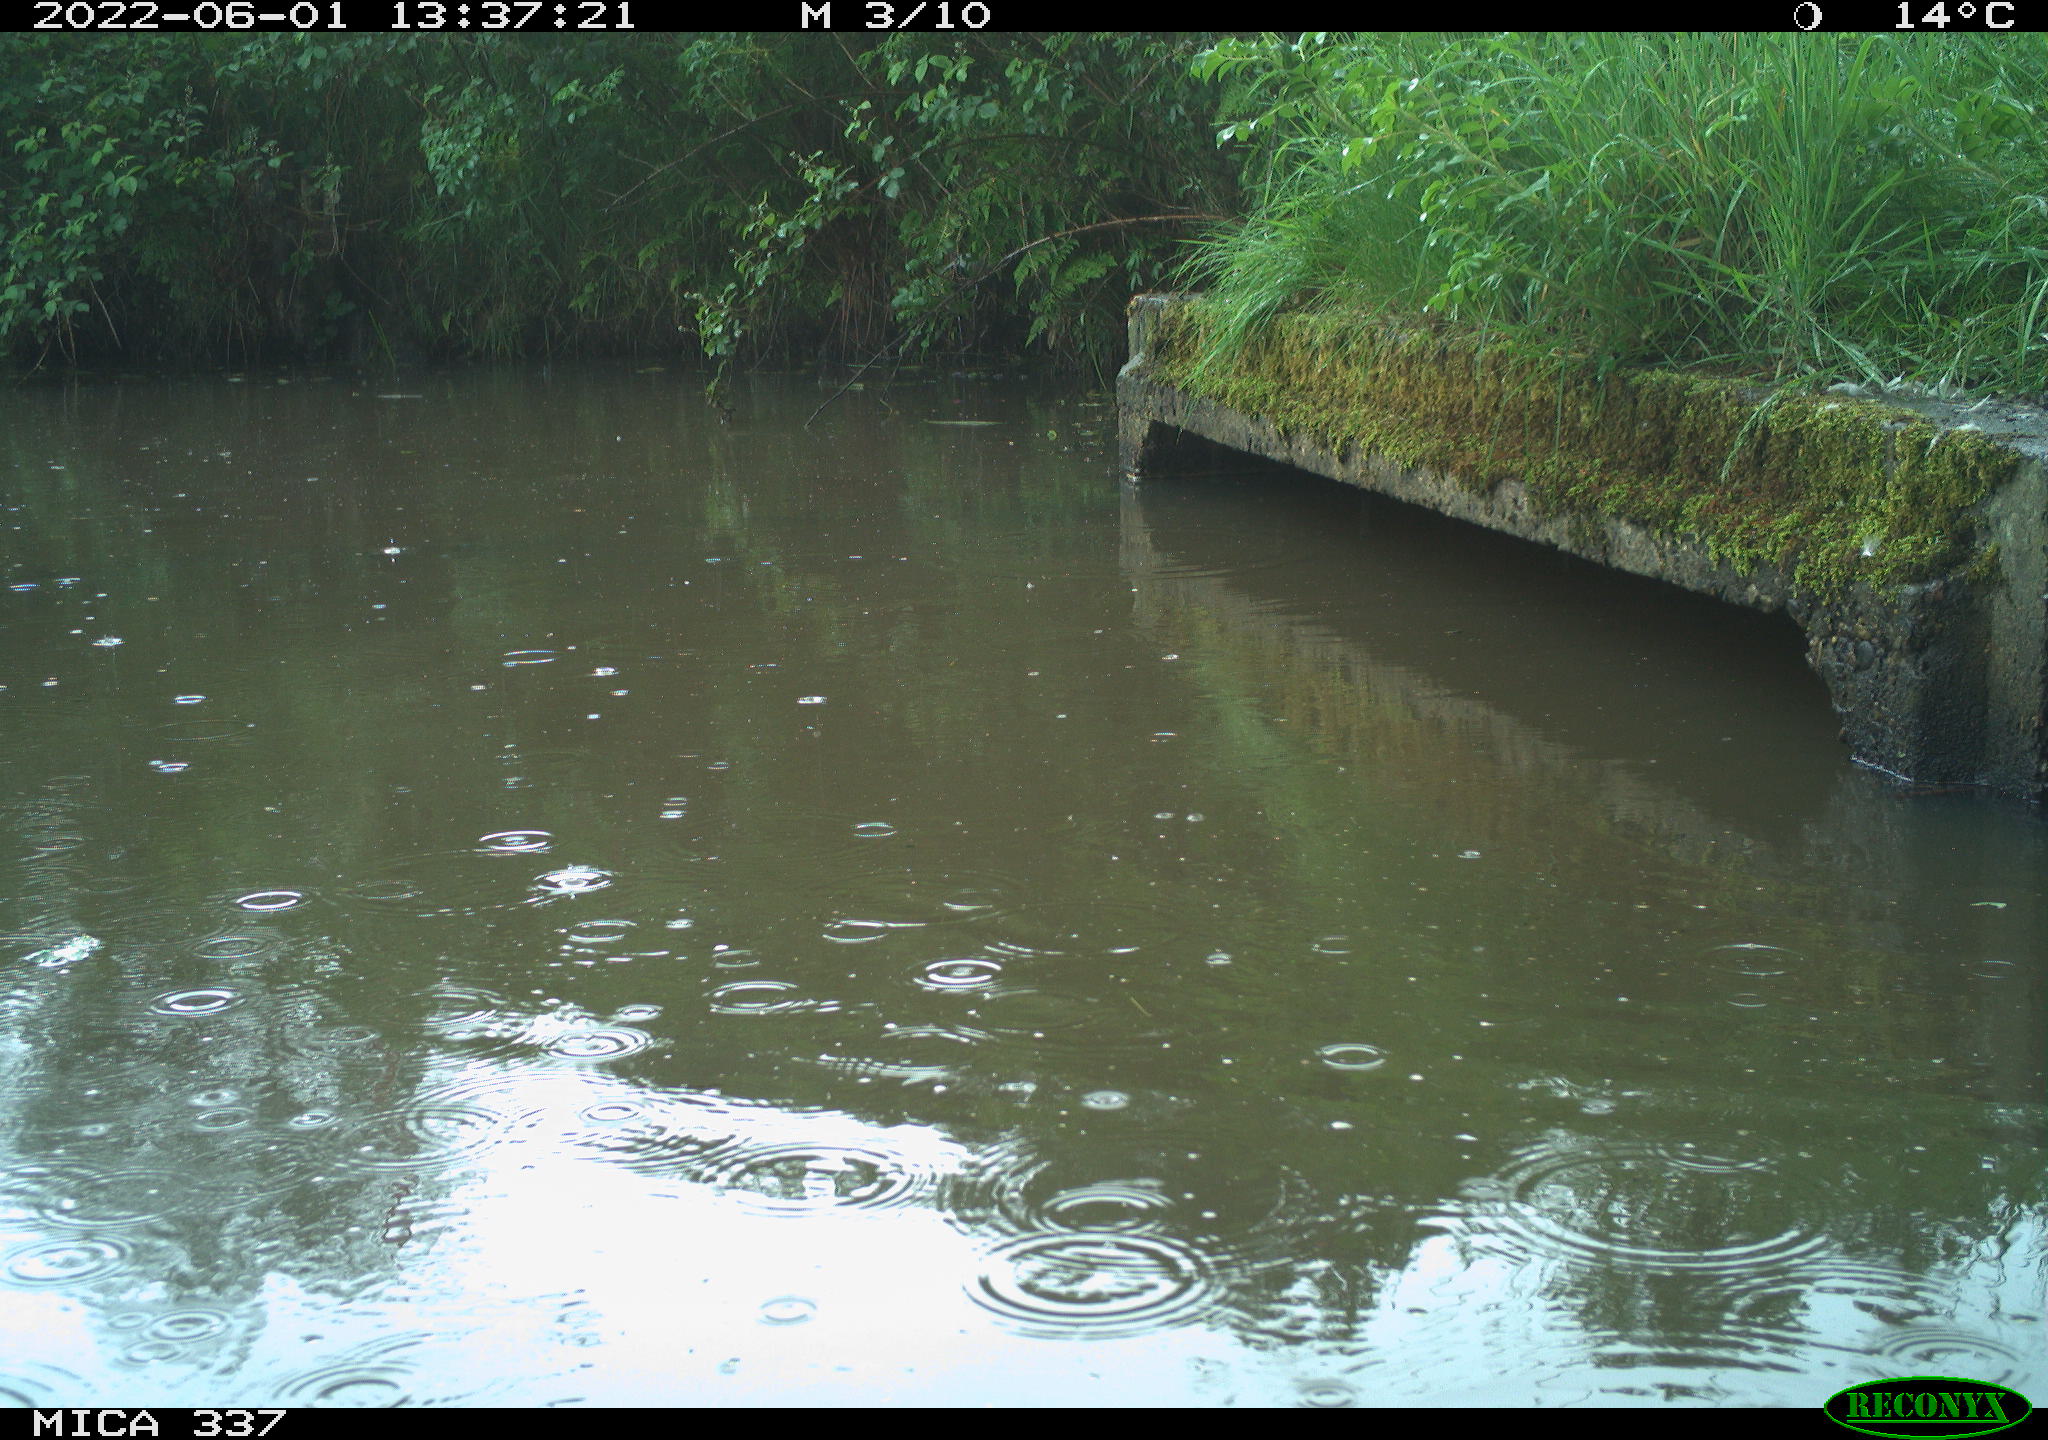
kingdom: Animalia
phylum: Chordata
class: Aves
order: Gruiformes
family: Rallidae
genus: Gallinula
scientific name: Gallinula chloropus
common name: Common moorhen
